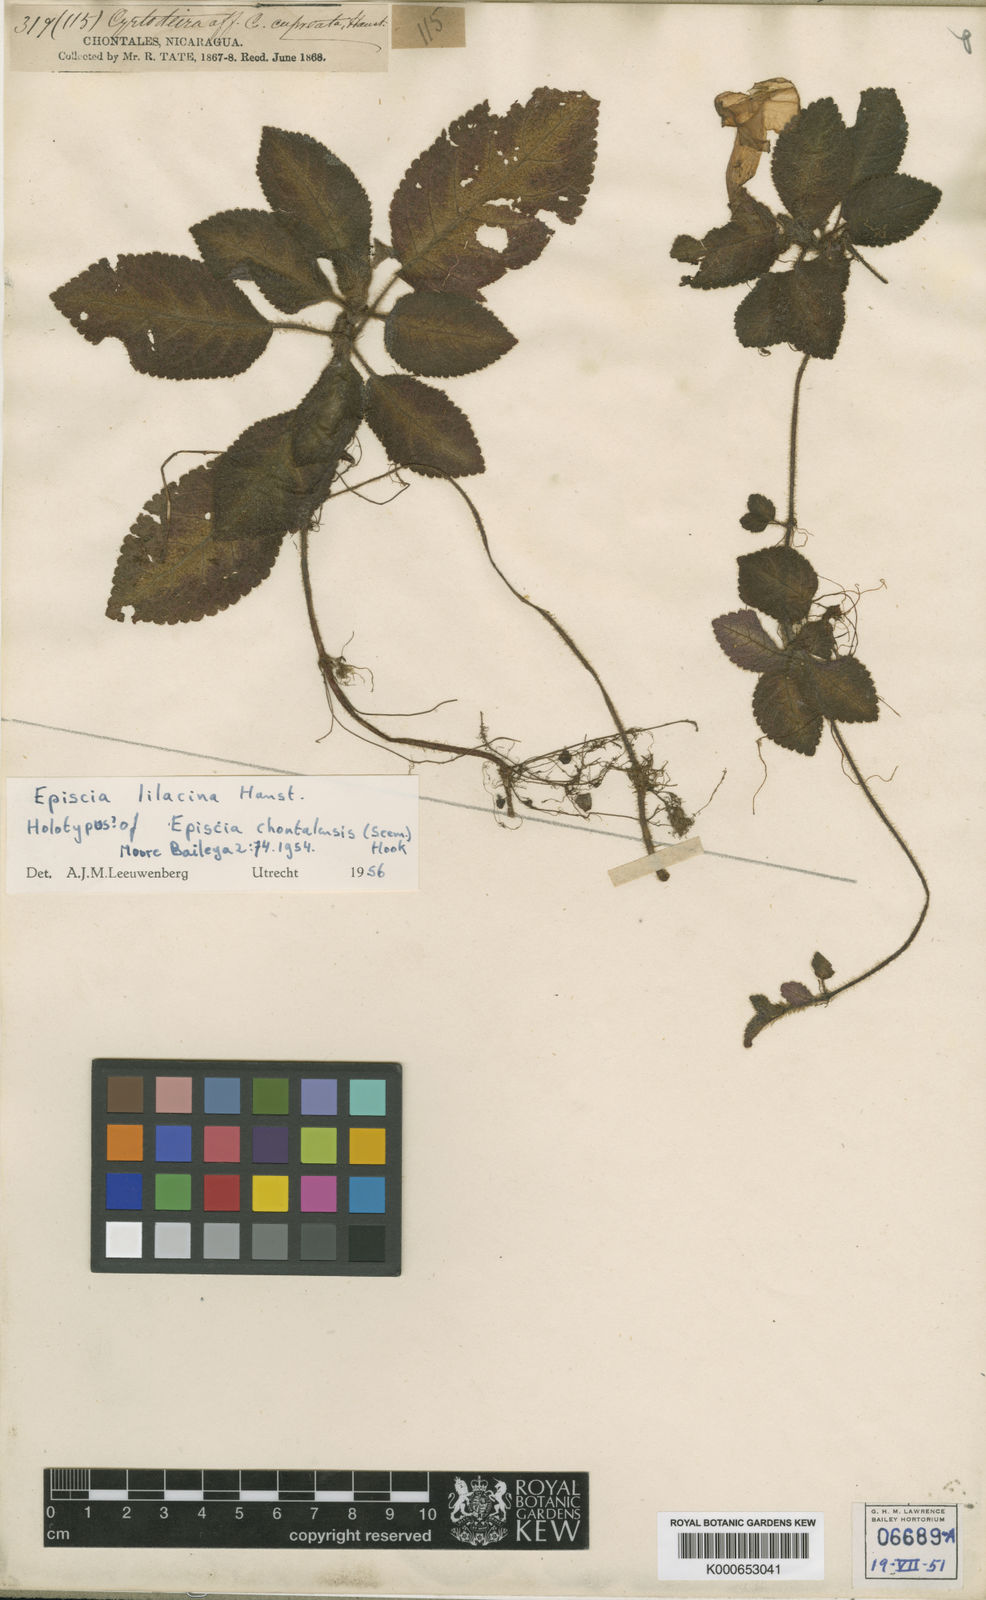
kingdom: Plantae
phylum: Tracheophyta
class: Magnoliopsida
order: Lamiales
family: Gesneriaceae
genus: Episcia
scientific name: Episcia lilacina
